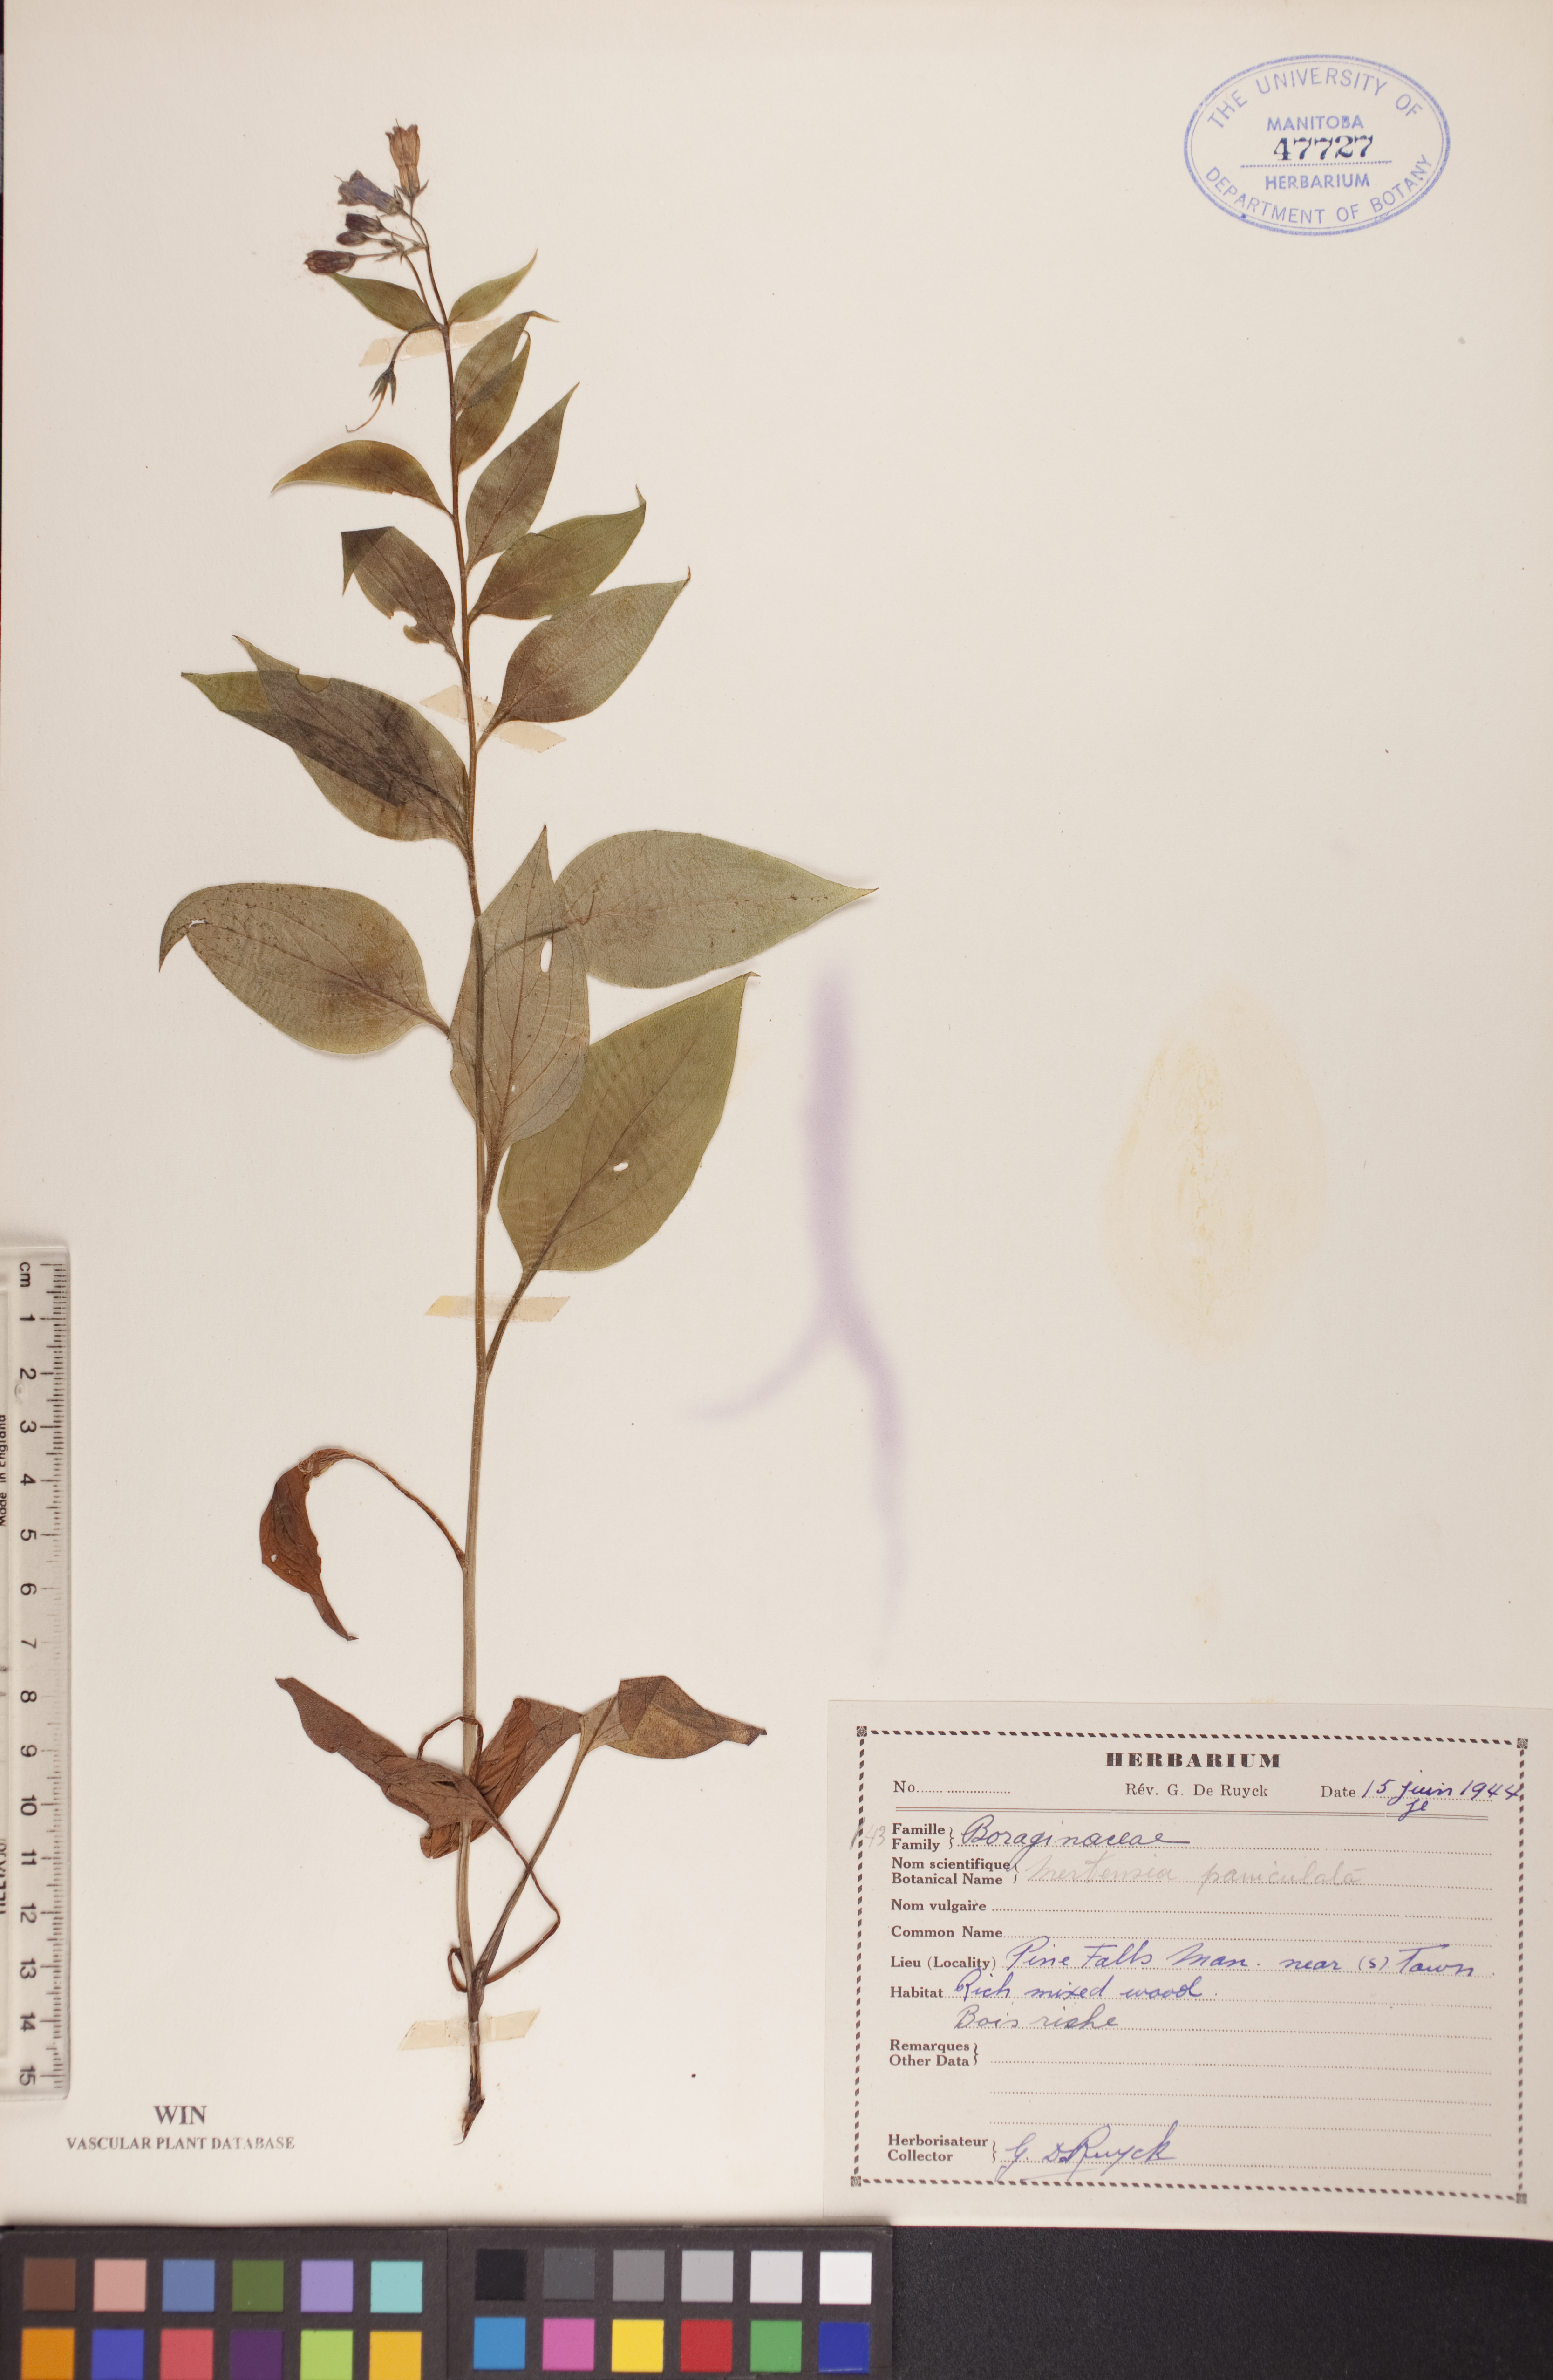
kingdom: Plantae
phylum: Tracheophyta
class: Magnoliopsida
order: Boraginales
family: Boraginaceae
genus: Mertensia
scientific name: Mertensia paniculata
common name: Panicled bluebells
